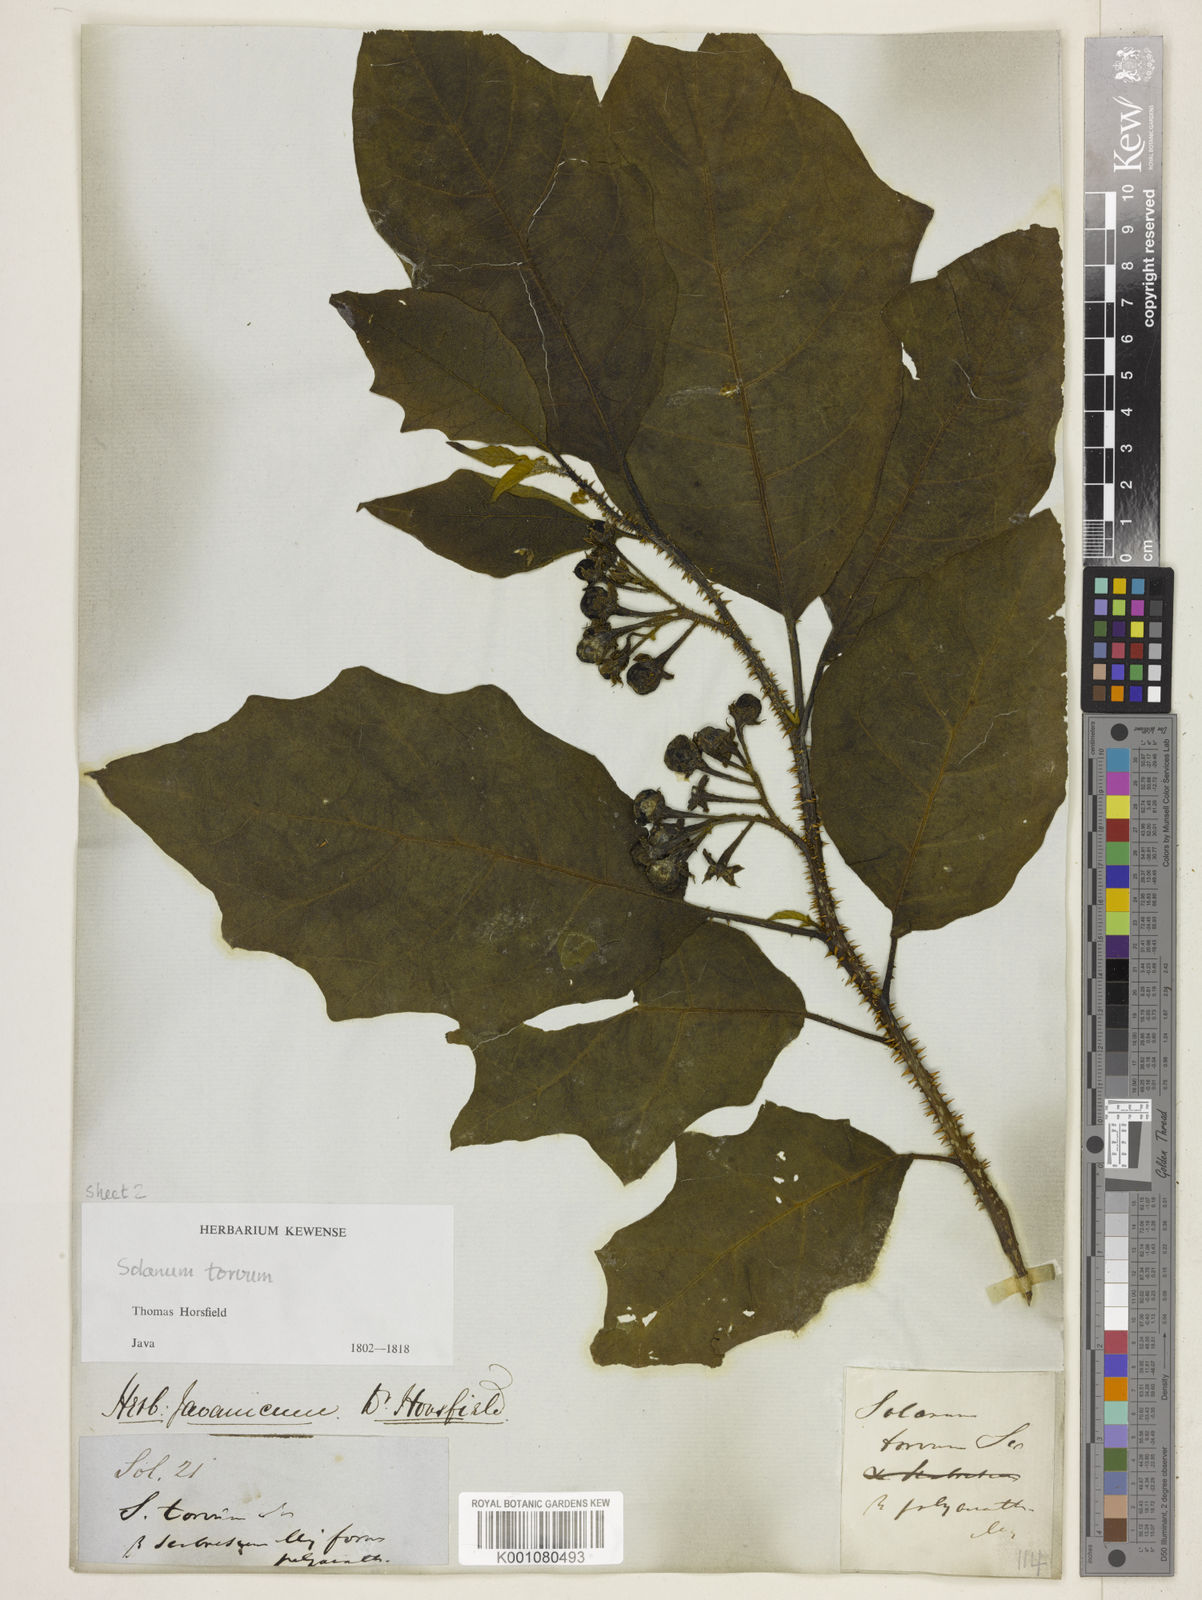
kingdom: Plantae
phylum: Tracheophyta
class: Magnoliopsida
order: Solanales
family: Solanaceae
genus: Solanum
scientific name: Solanum torvum
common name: Turkey berry
